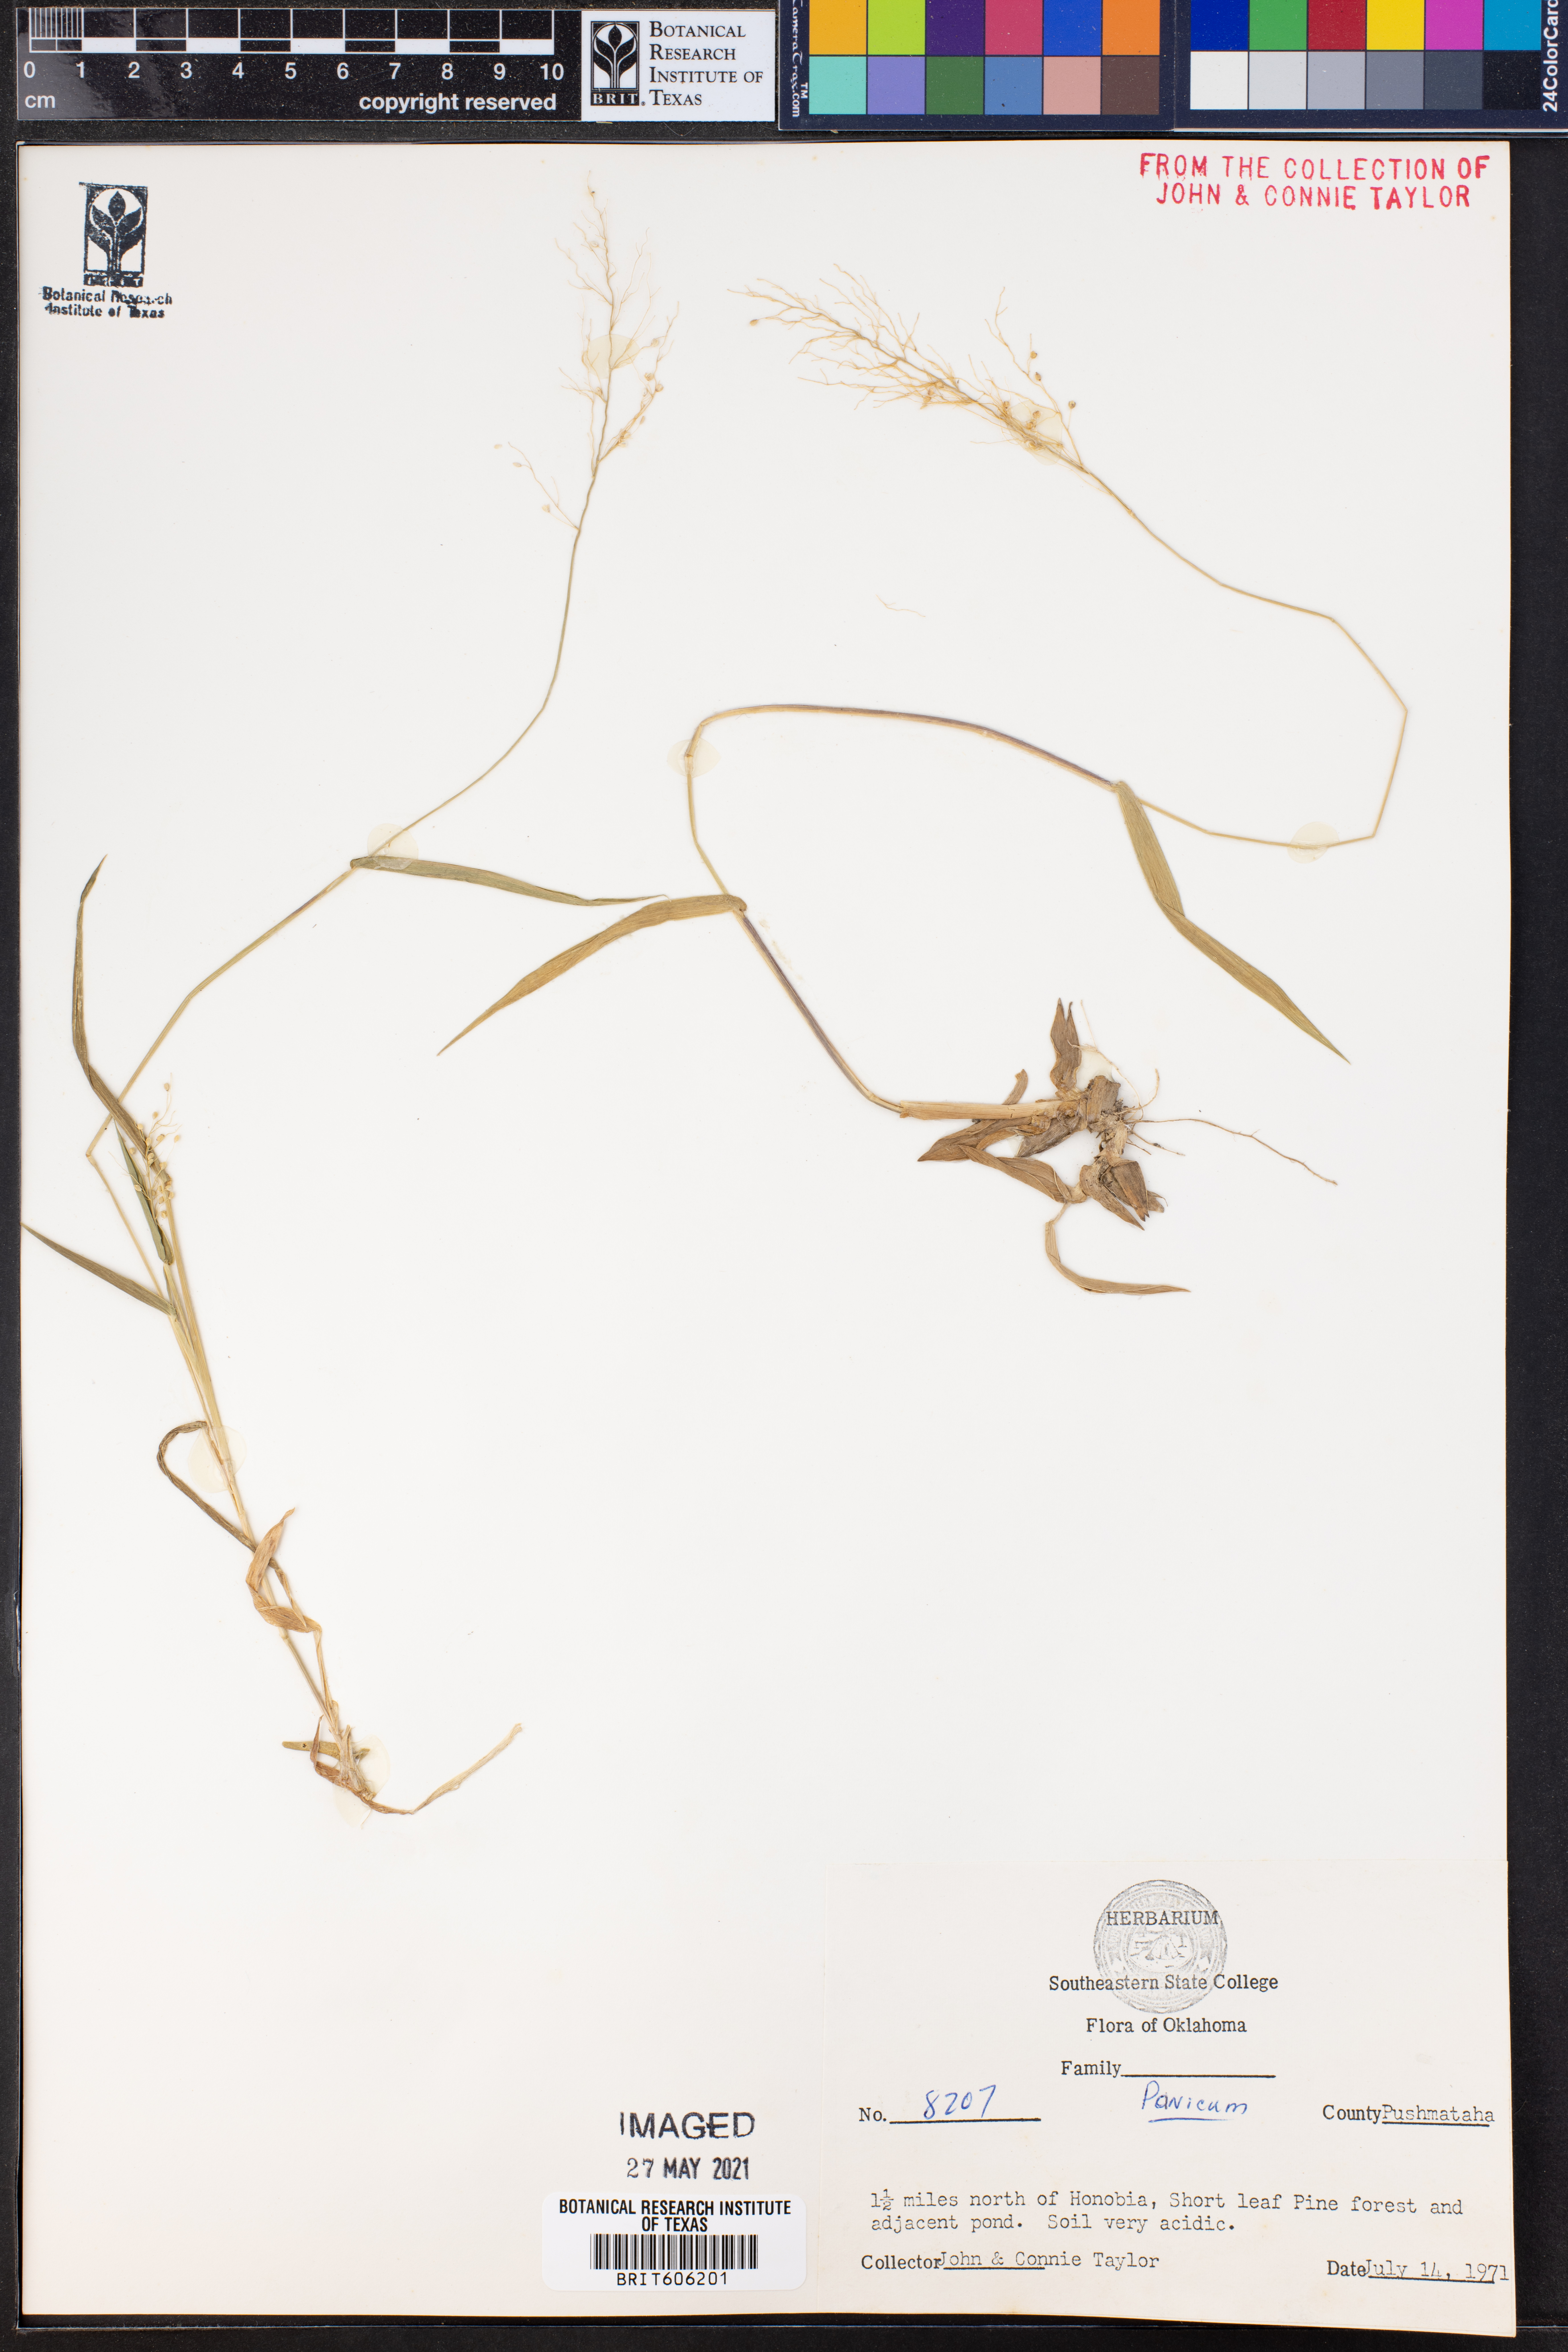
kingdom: Plantae
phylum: Tracheophyta
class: Liliopsida
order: Poales
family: Poaceae
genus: Panicum
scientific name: Panicum
